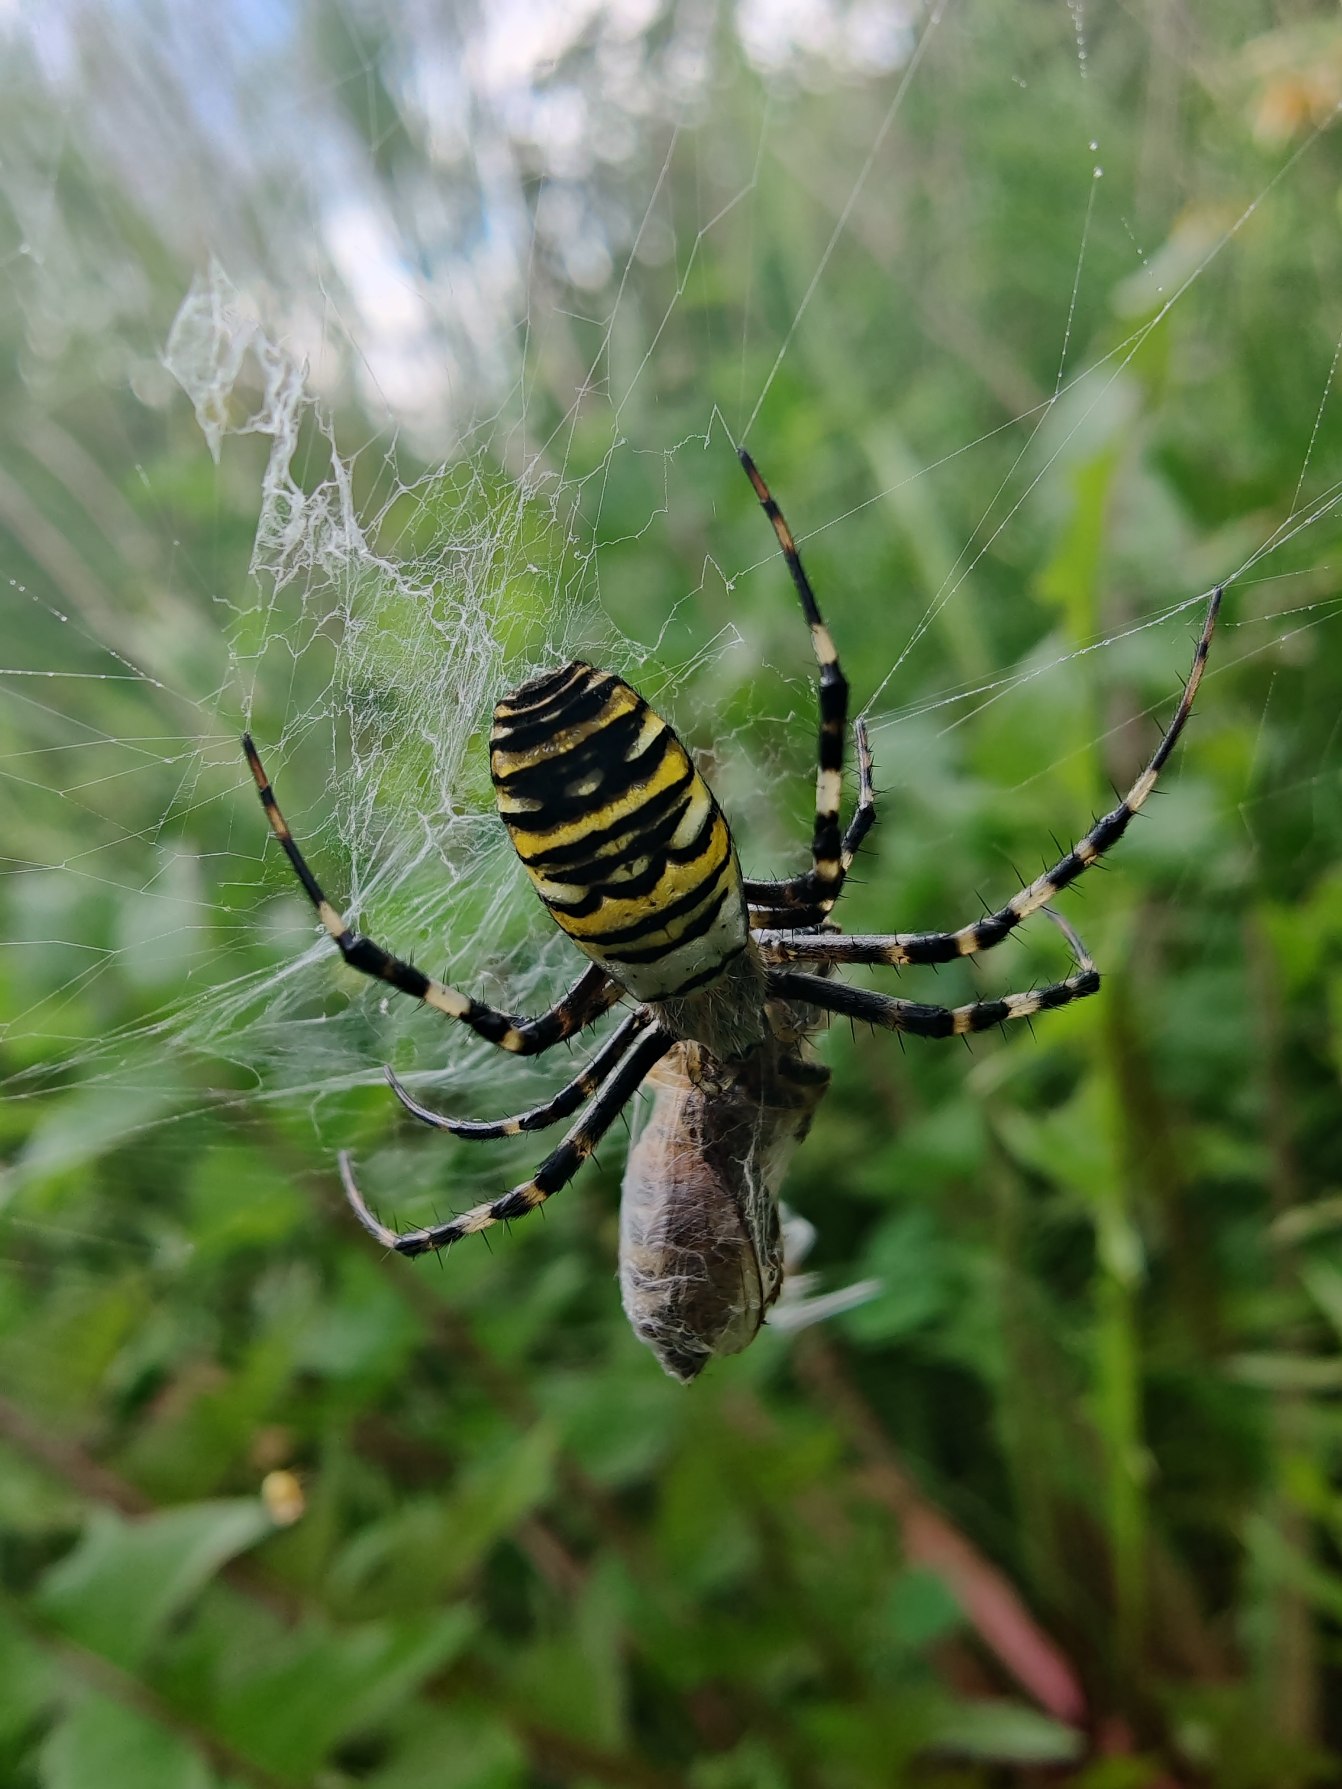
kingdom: Animalia
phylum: Arthropoda
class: Arachnida
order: Araneae
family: Araneidae
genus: Argiope
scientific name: Argiope bruennichi
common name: Hvepseedderkop
